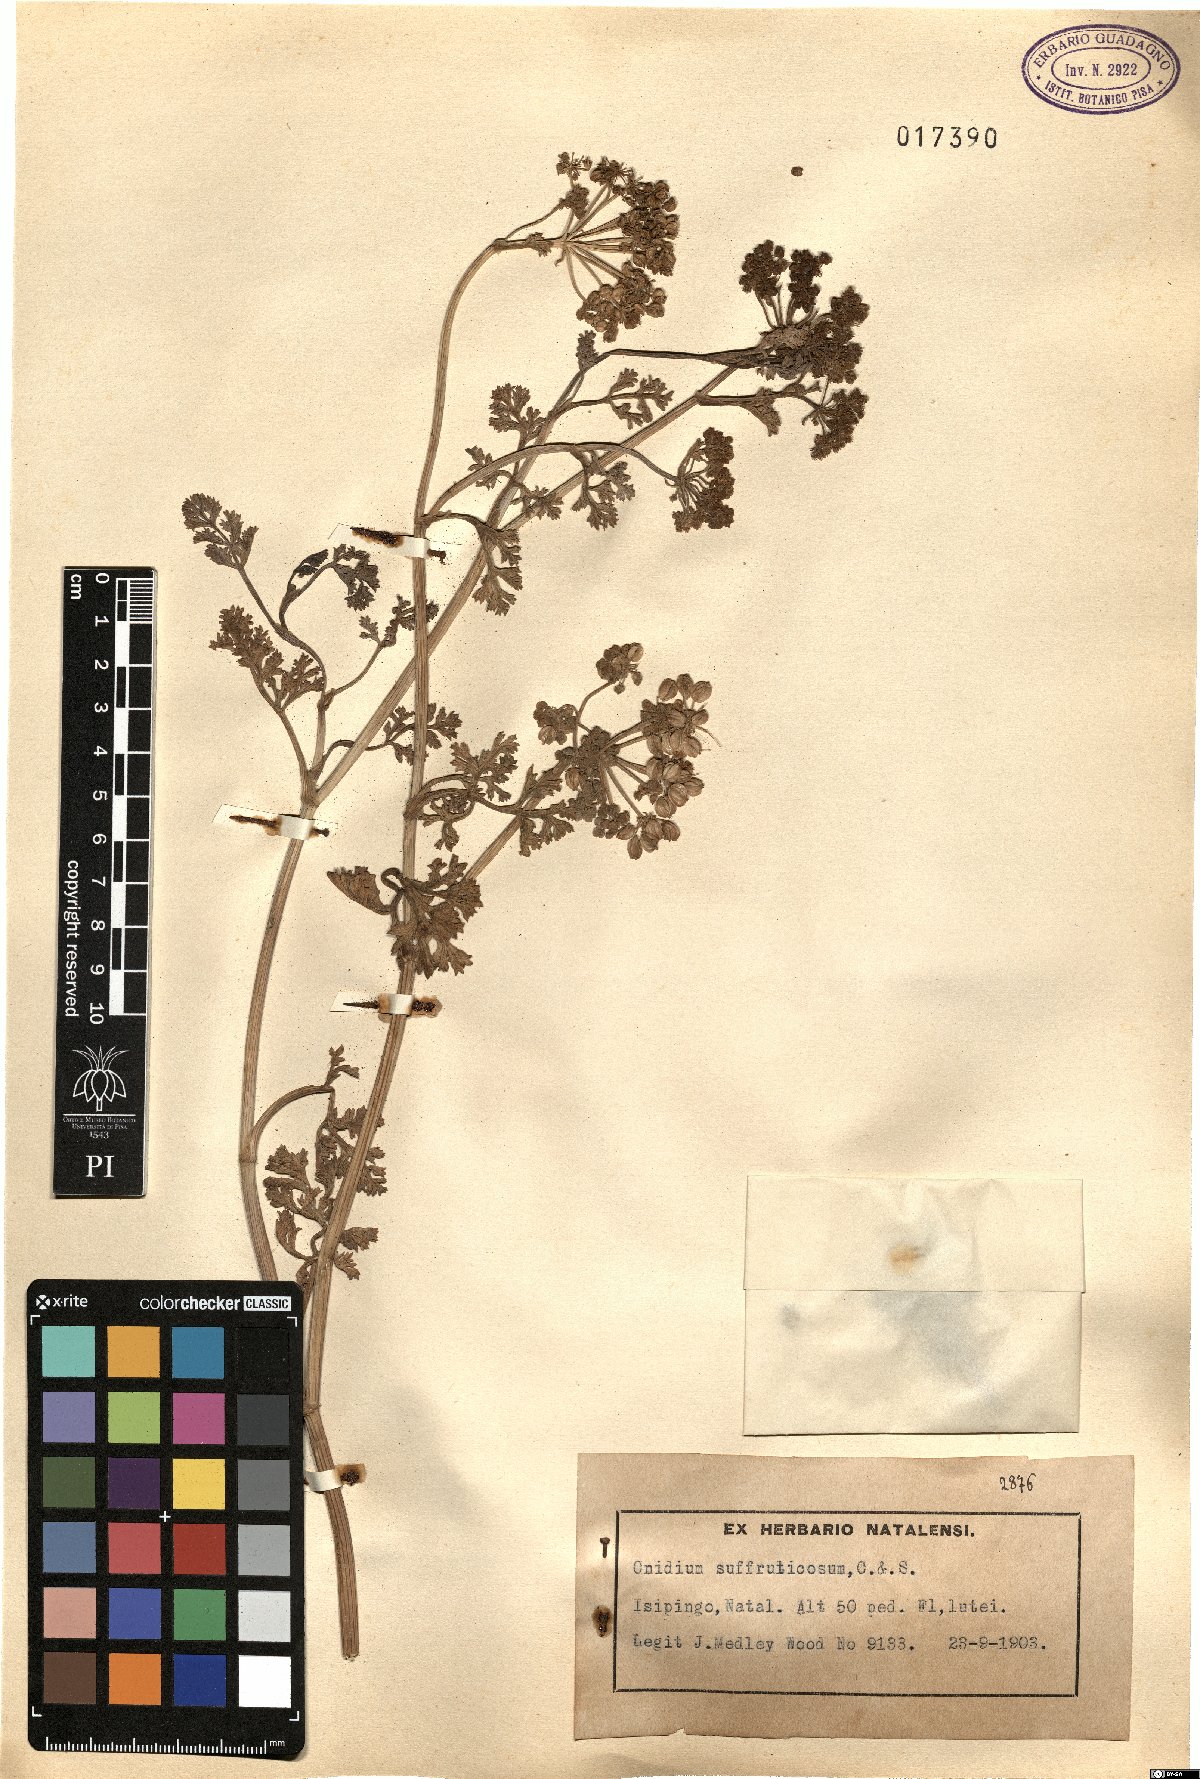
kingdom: Plantae
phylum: Tracheophyta
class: Magnoliopsida
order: Apiales
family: Apiaceae
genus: Dasispermum
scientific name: Dasispermum suffruticosum
